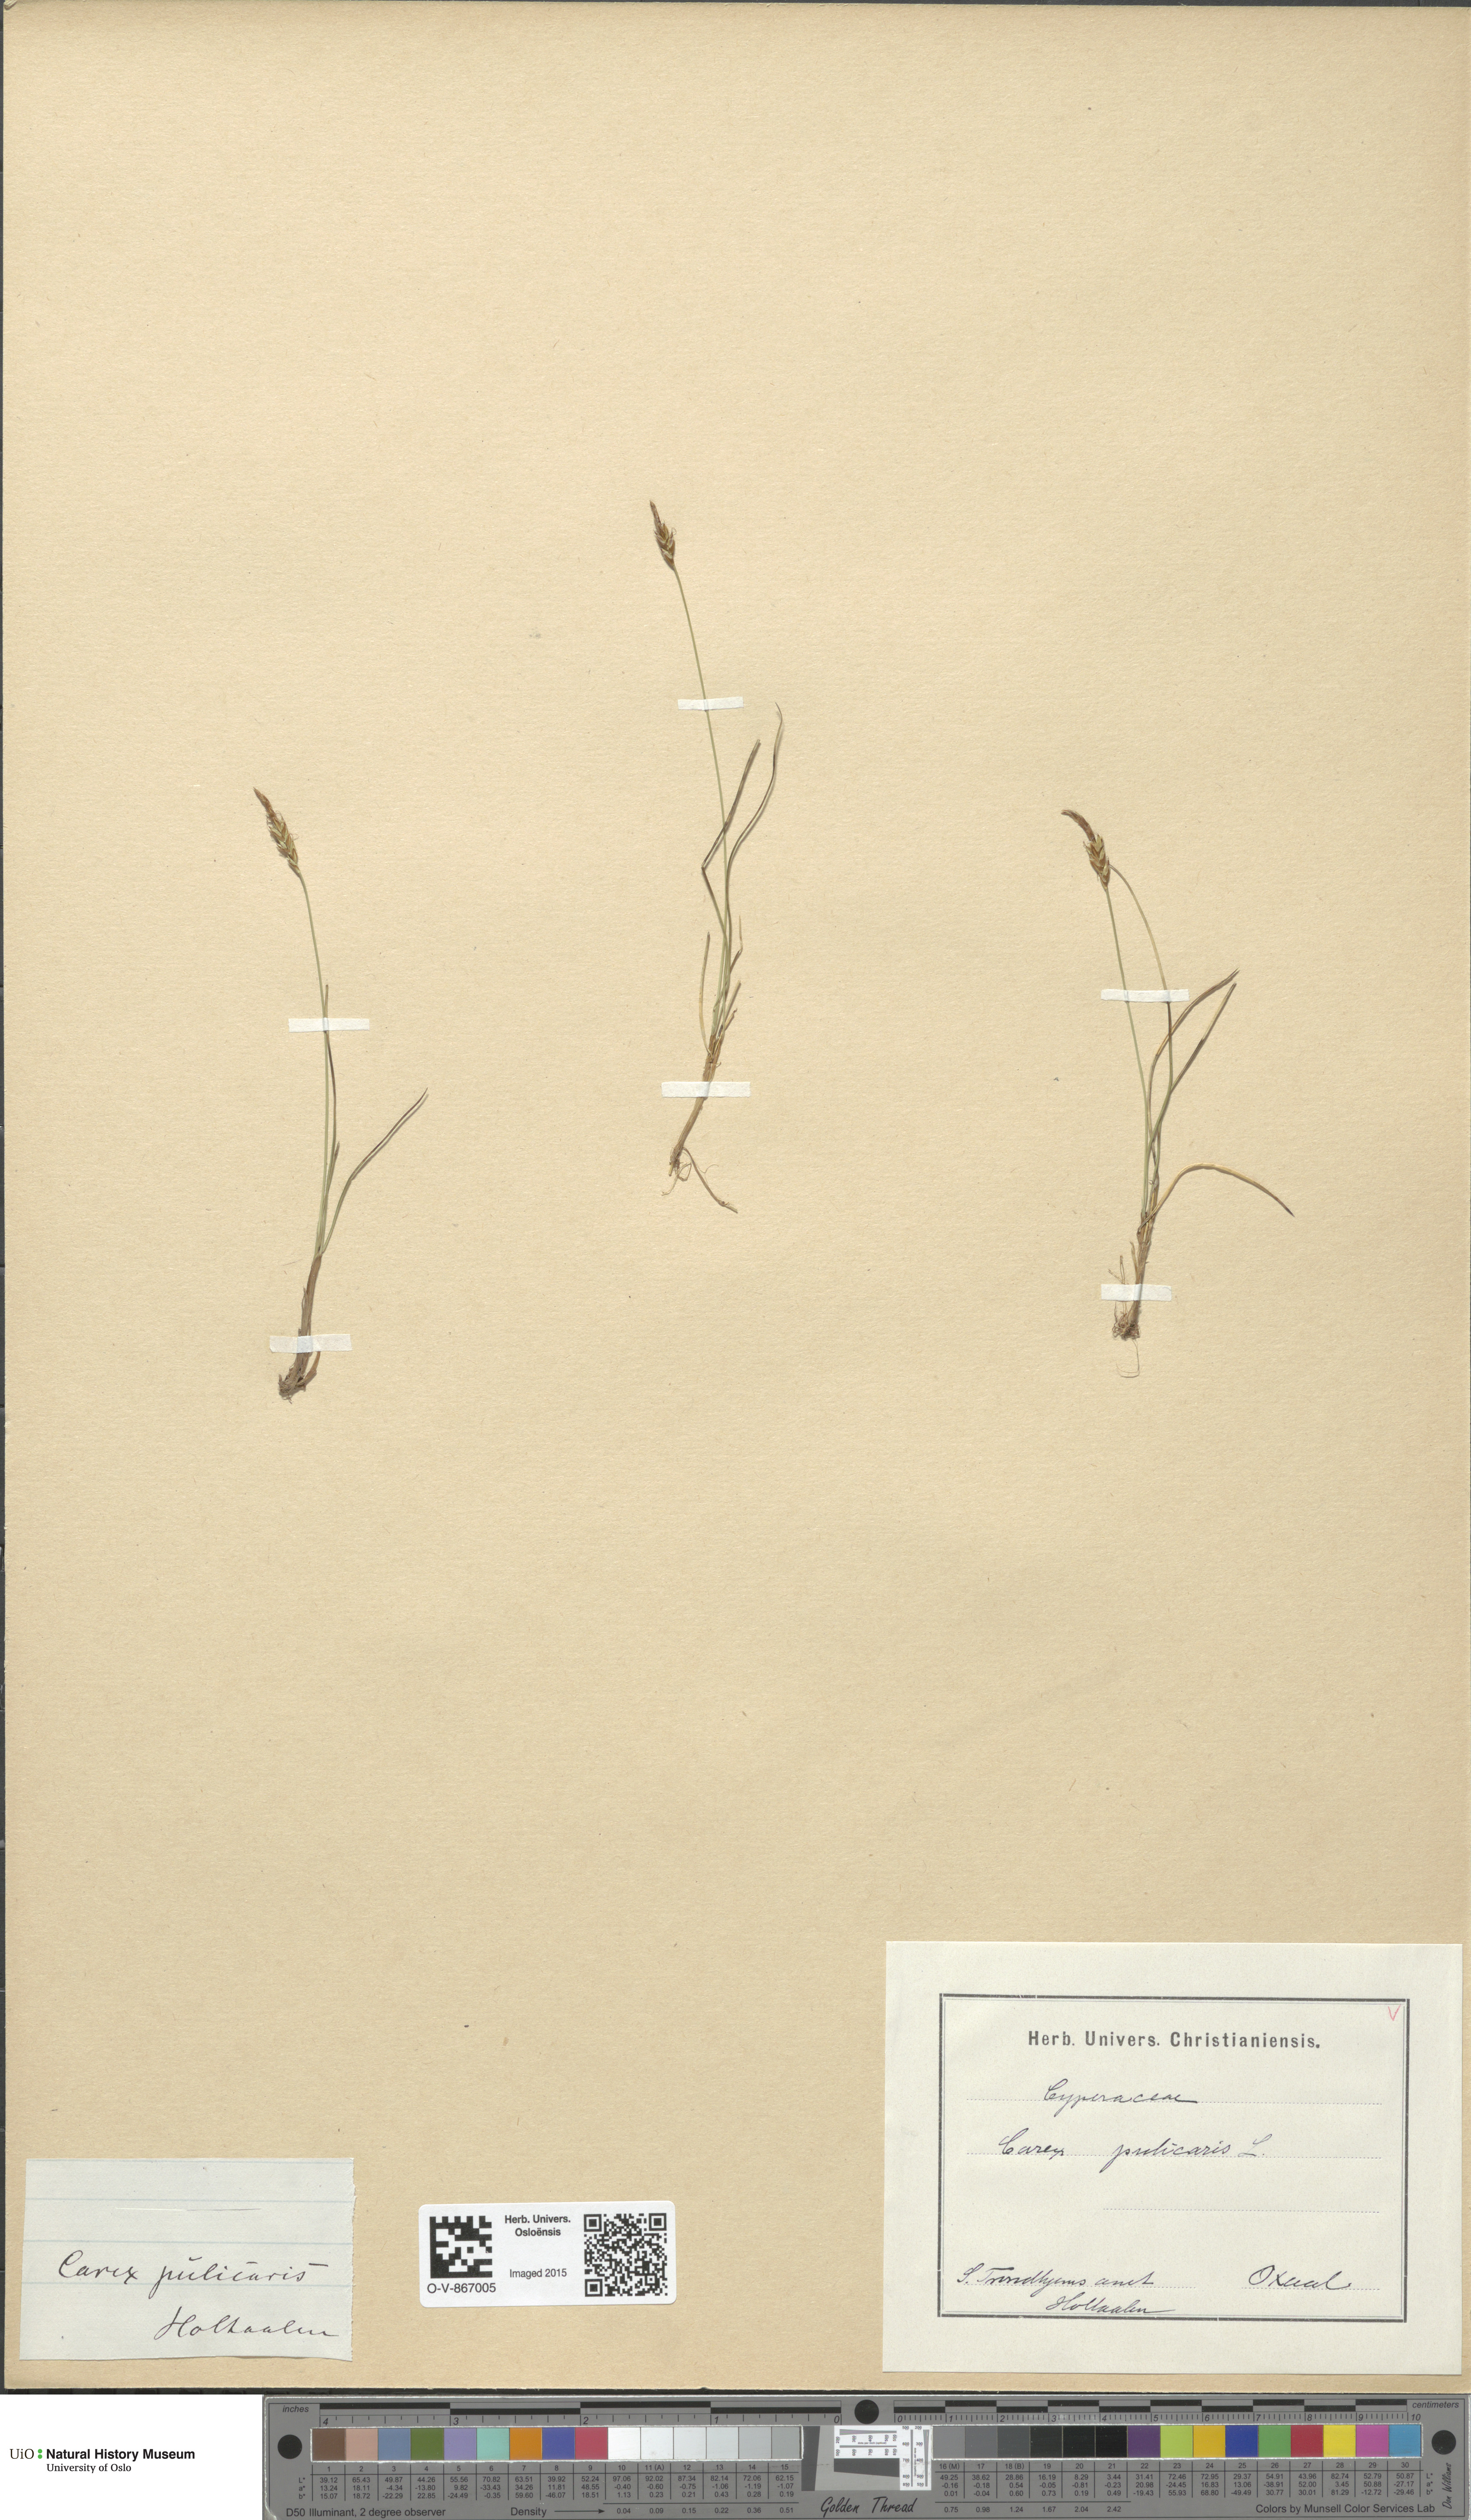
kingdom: Plantae
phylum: Tracheophyta
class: Liliopsida
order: Poales
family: Cyperaceae
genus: Carex
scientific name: Carex pulicaris
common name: Flea sedge
